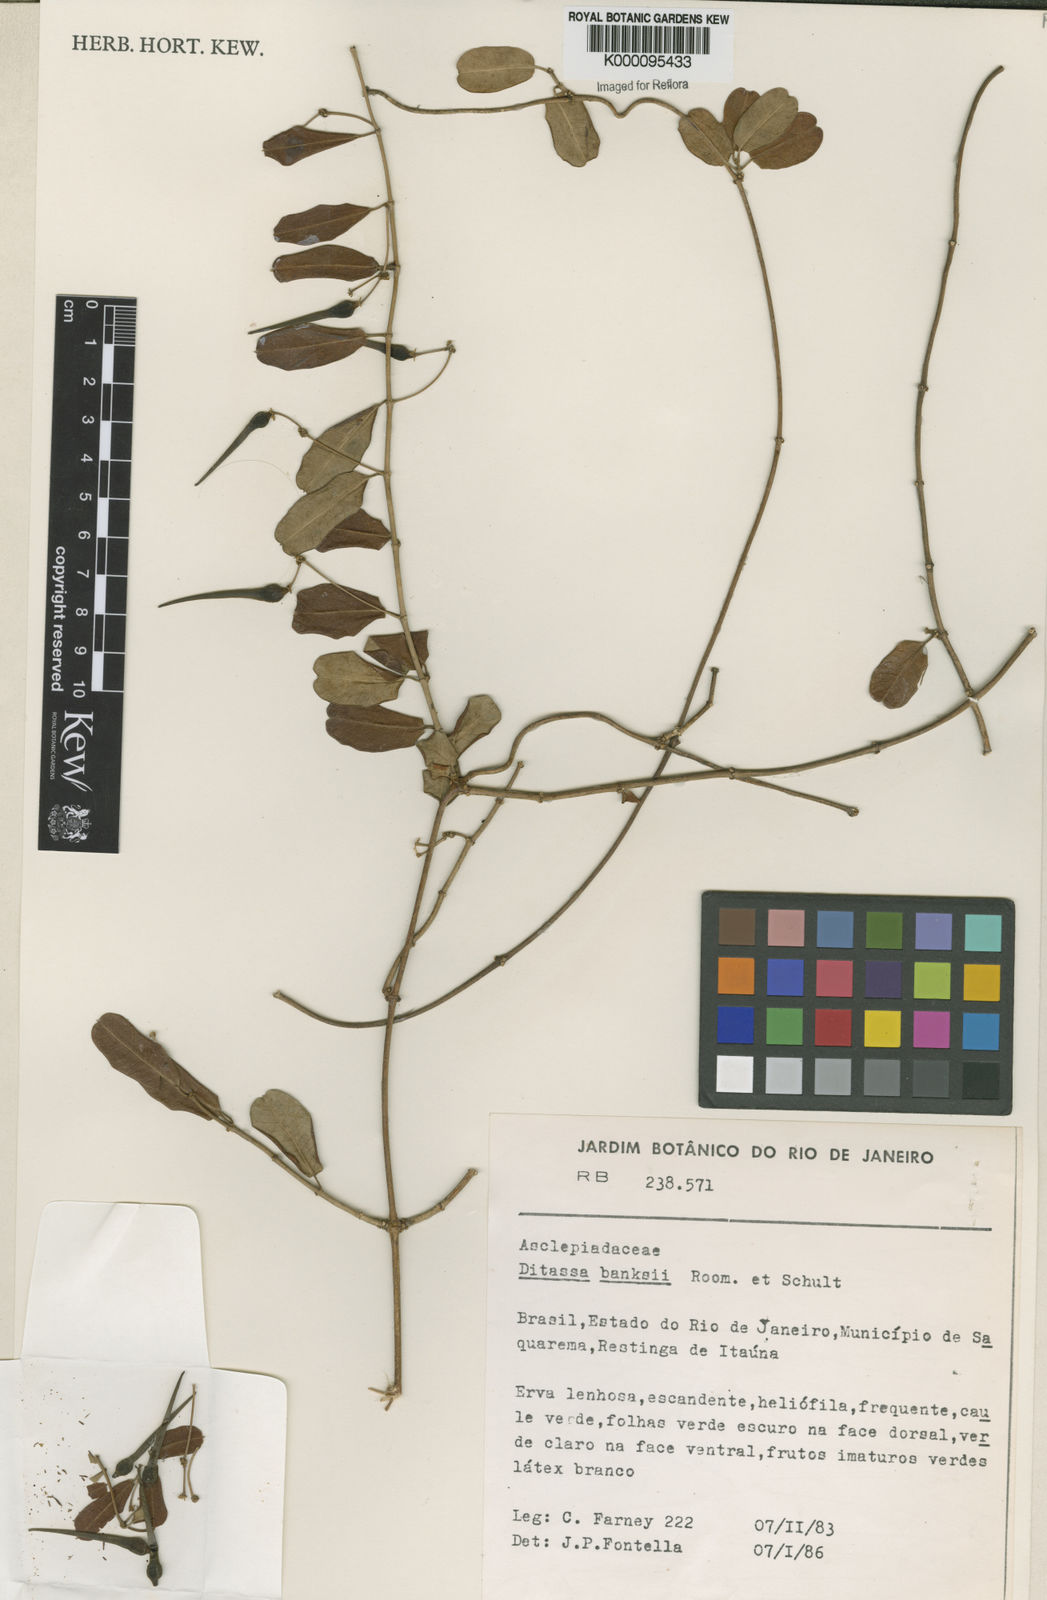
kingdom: Plantae
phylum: Tracheophyta
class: Magnoliopsida
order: Gentianales
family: Apocynaceae
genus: Ditassa
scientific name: Ditassa banksii
